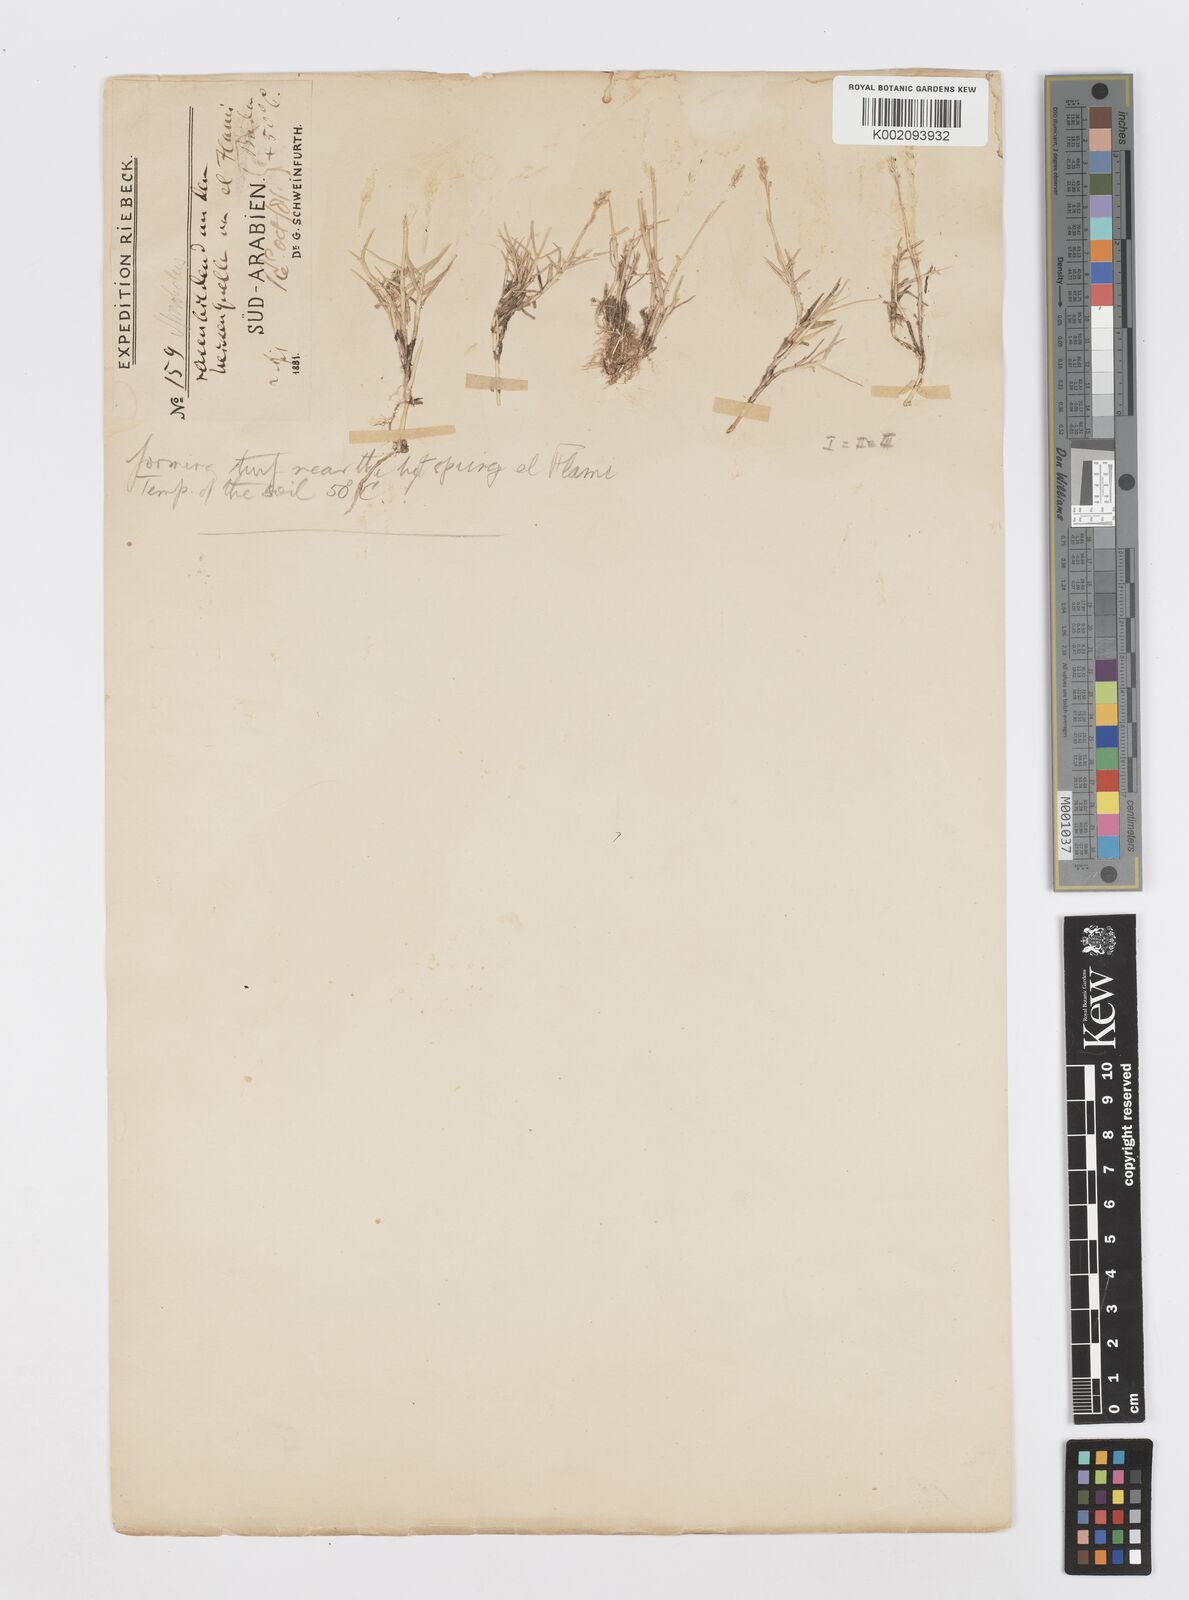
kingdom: Plantae
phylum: Tracheophyta
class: Liliopsida
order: Poales
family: Poaceae
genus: Sporobolus
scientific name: Sporobolus virginicus
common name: Beach dropseed
